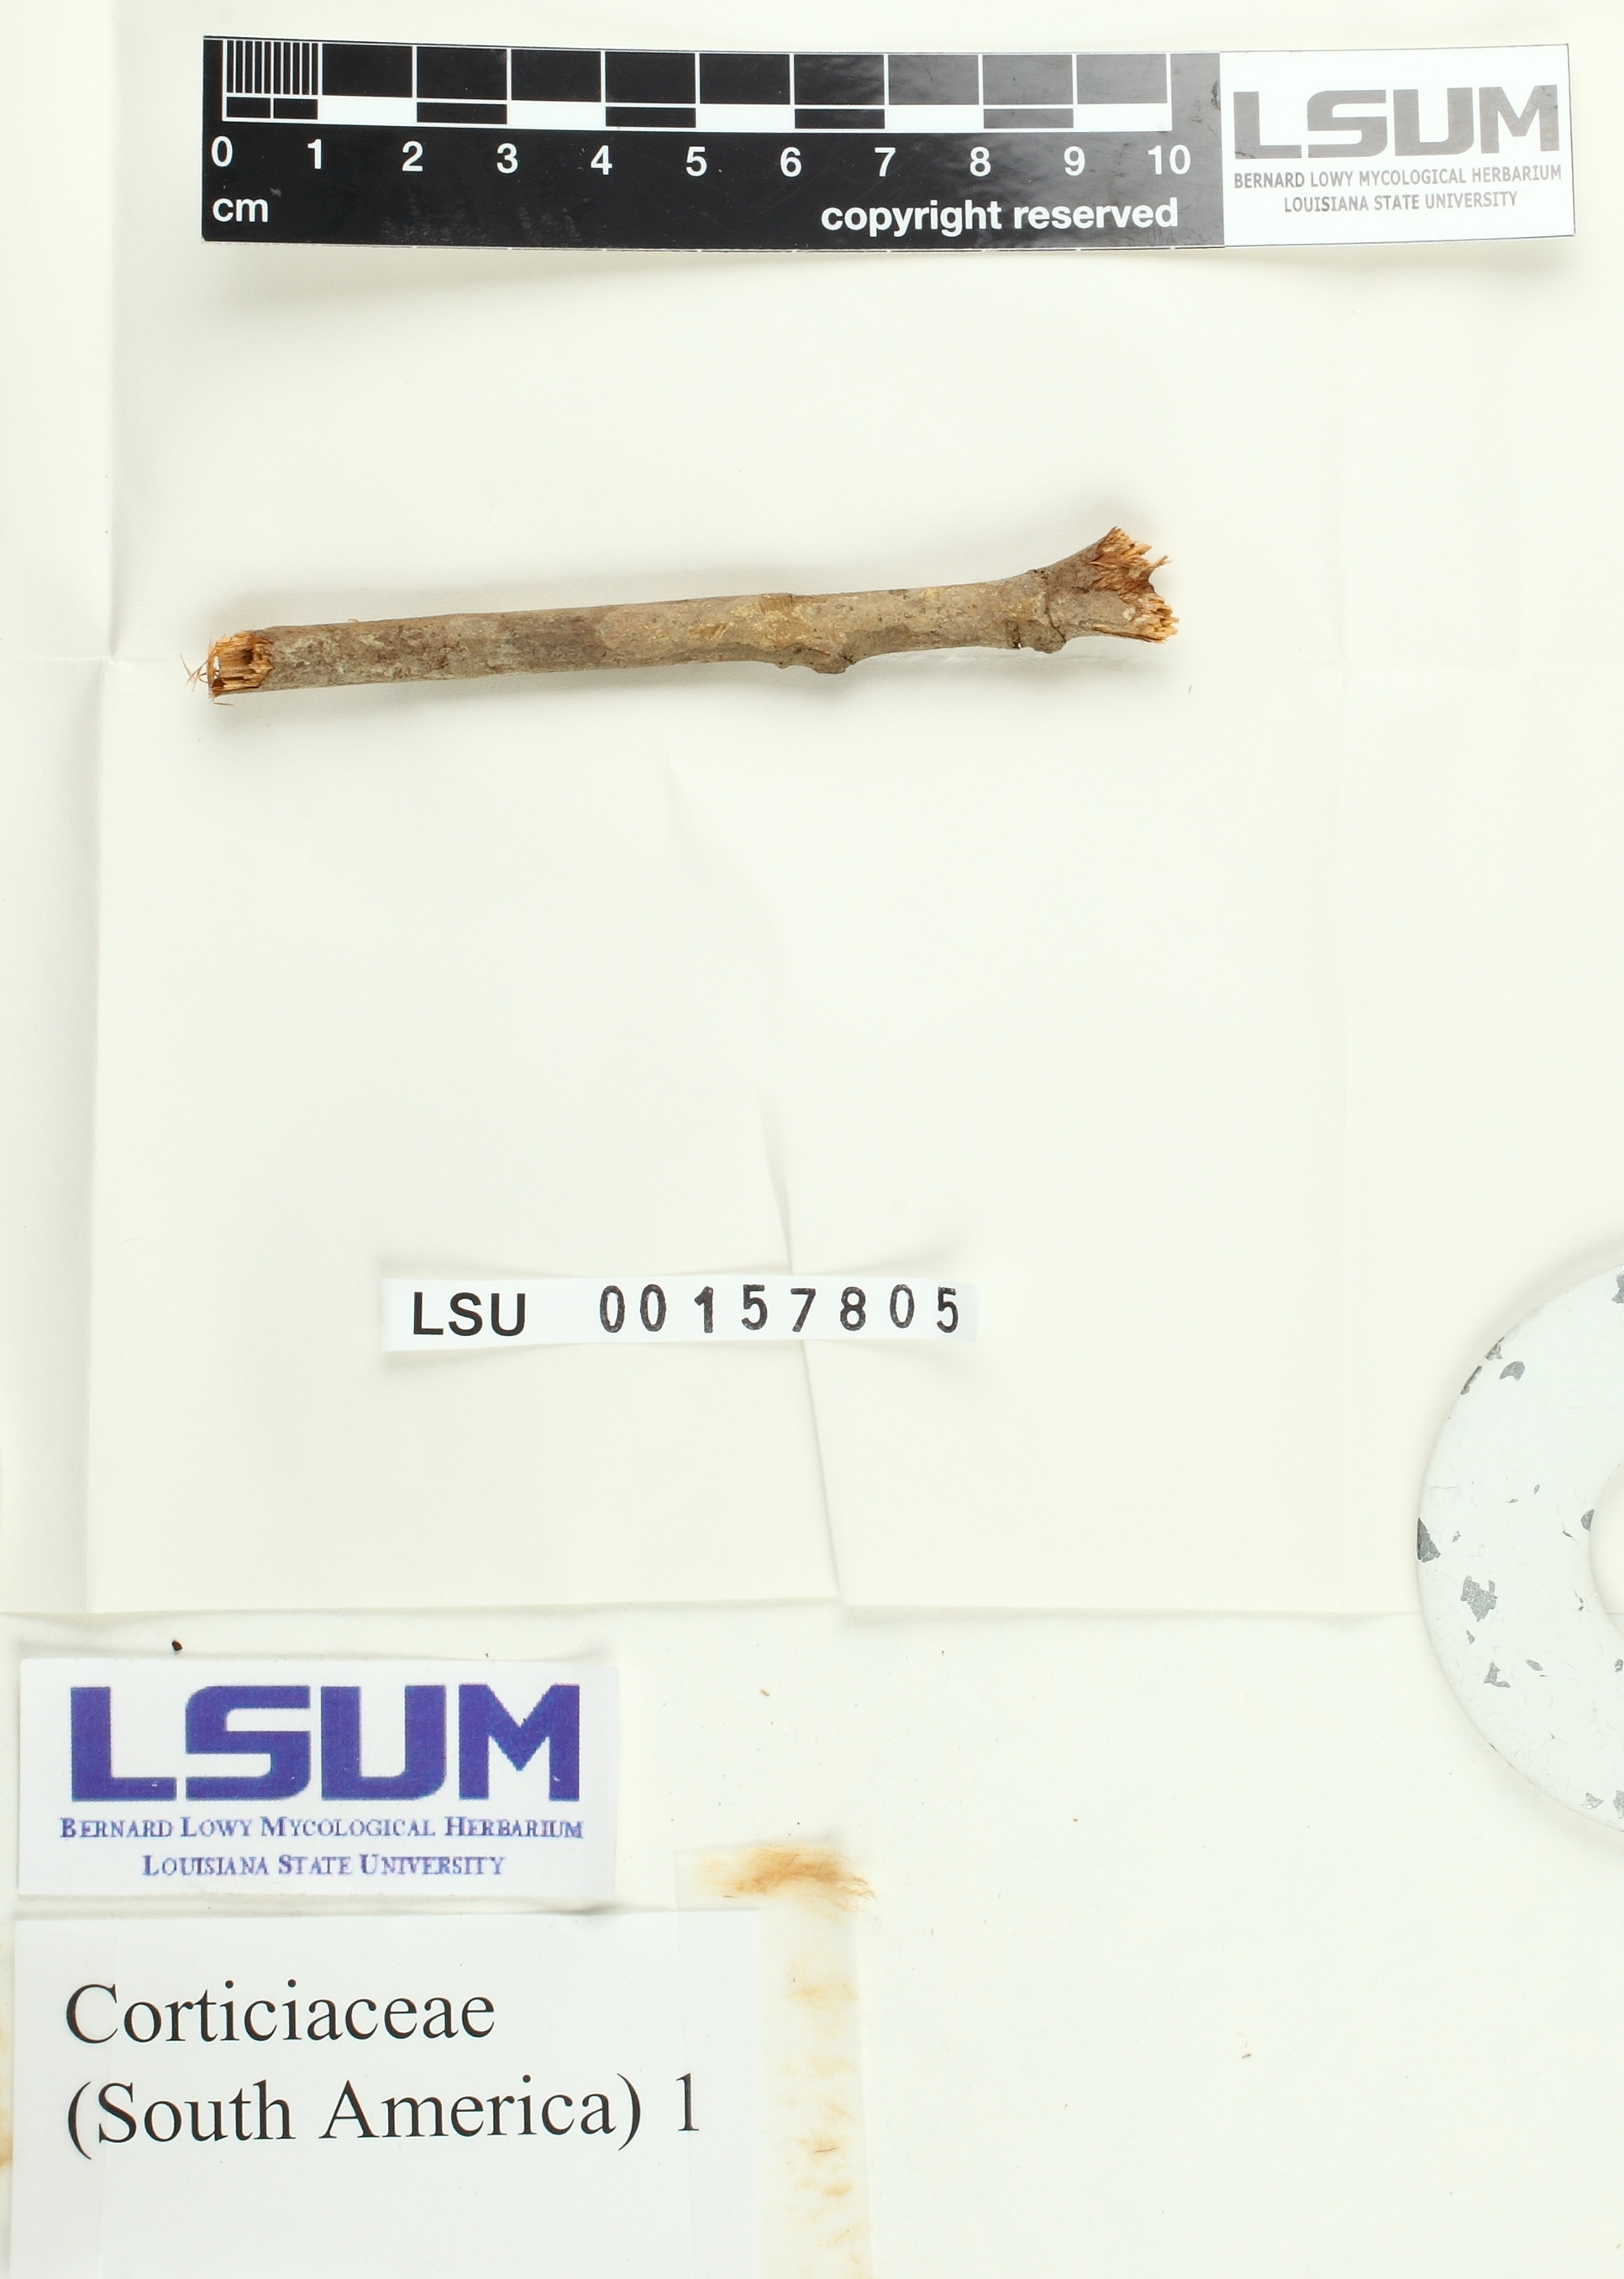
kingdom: Fungi
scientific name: Fungi
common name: Fungi
